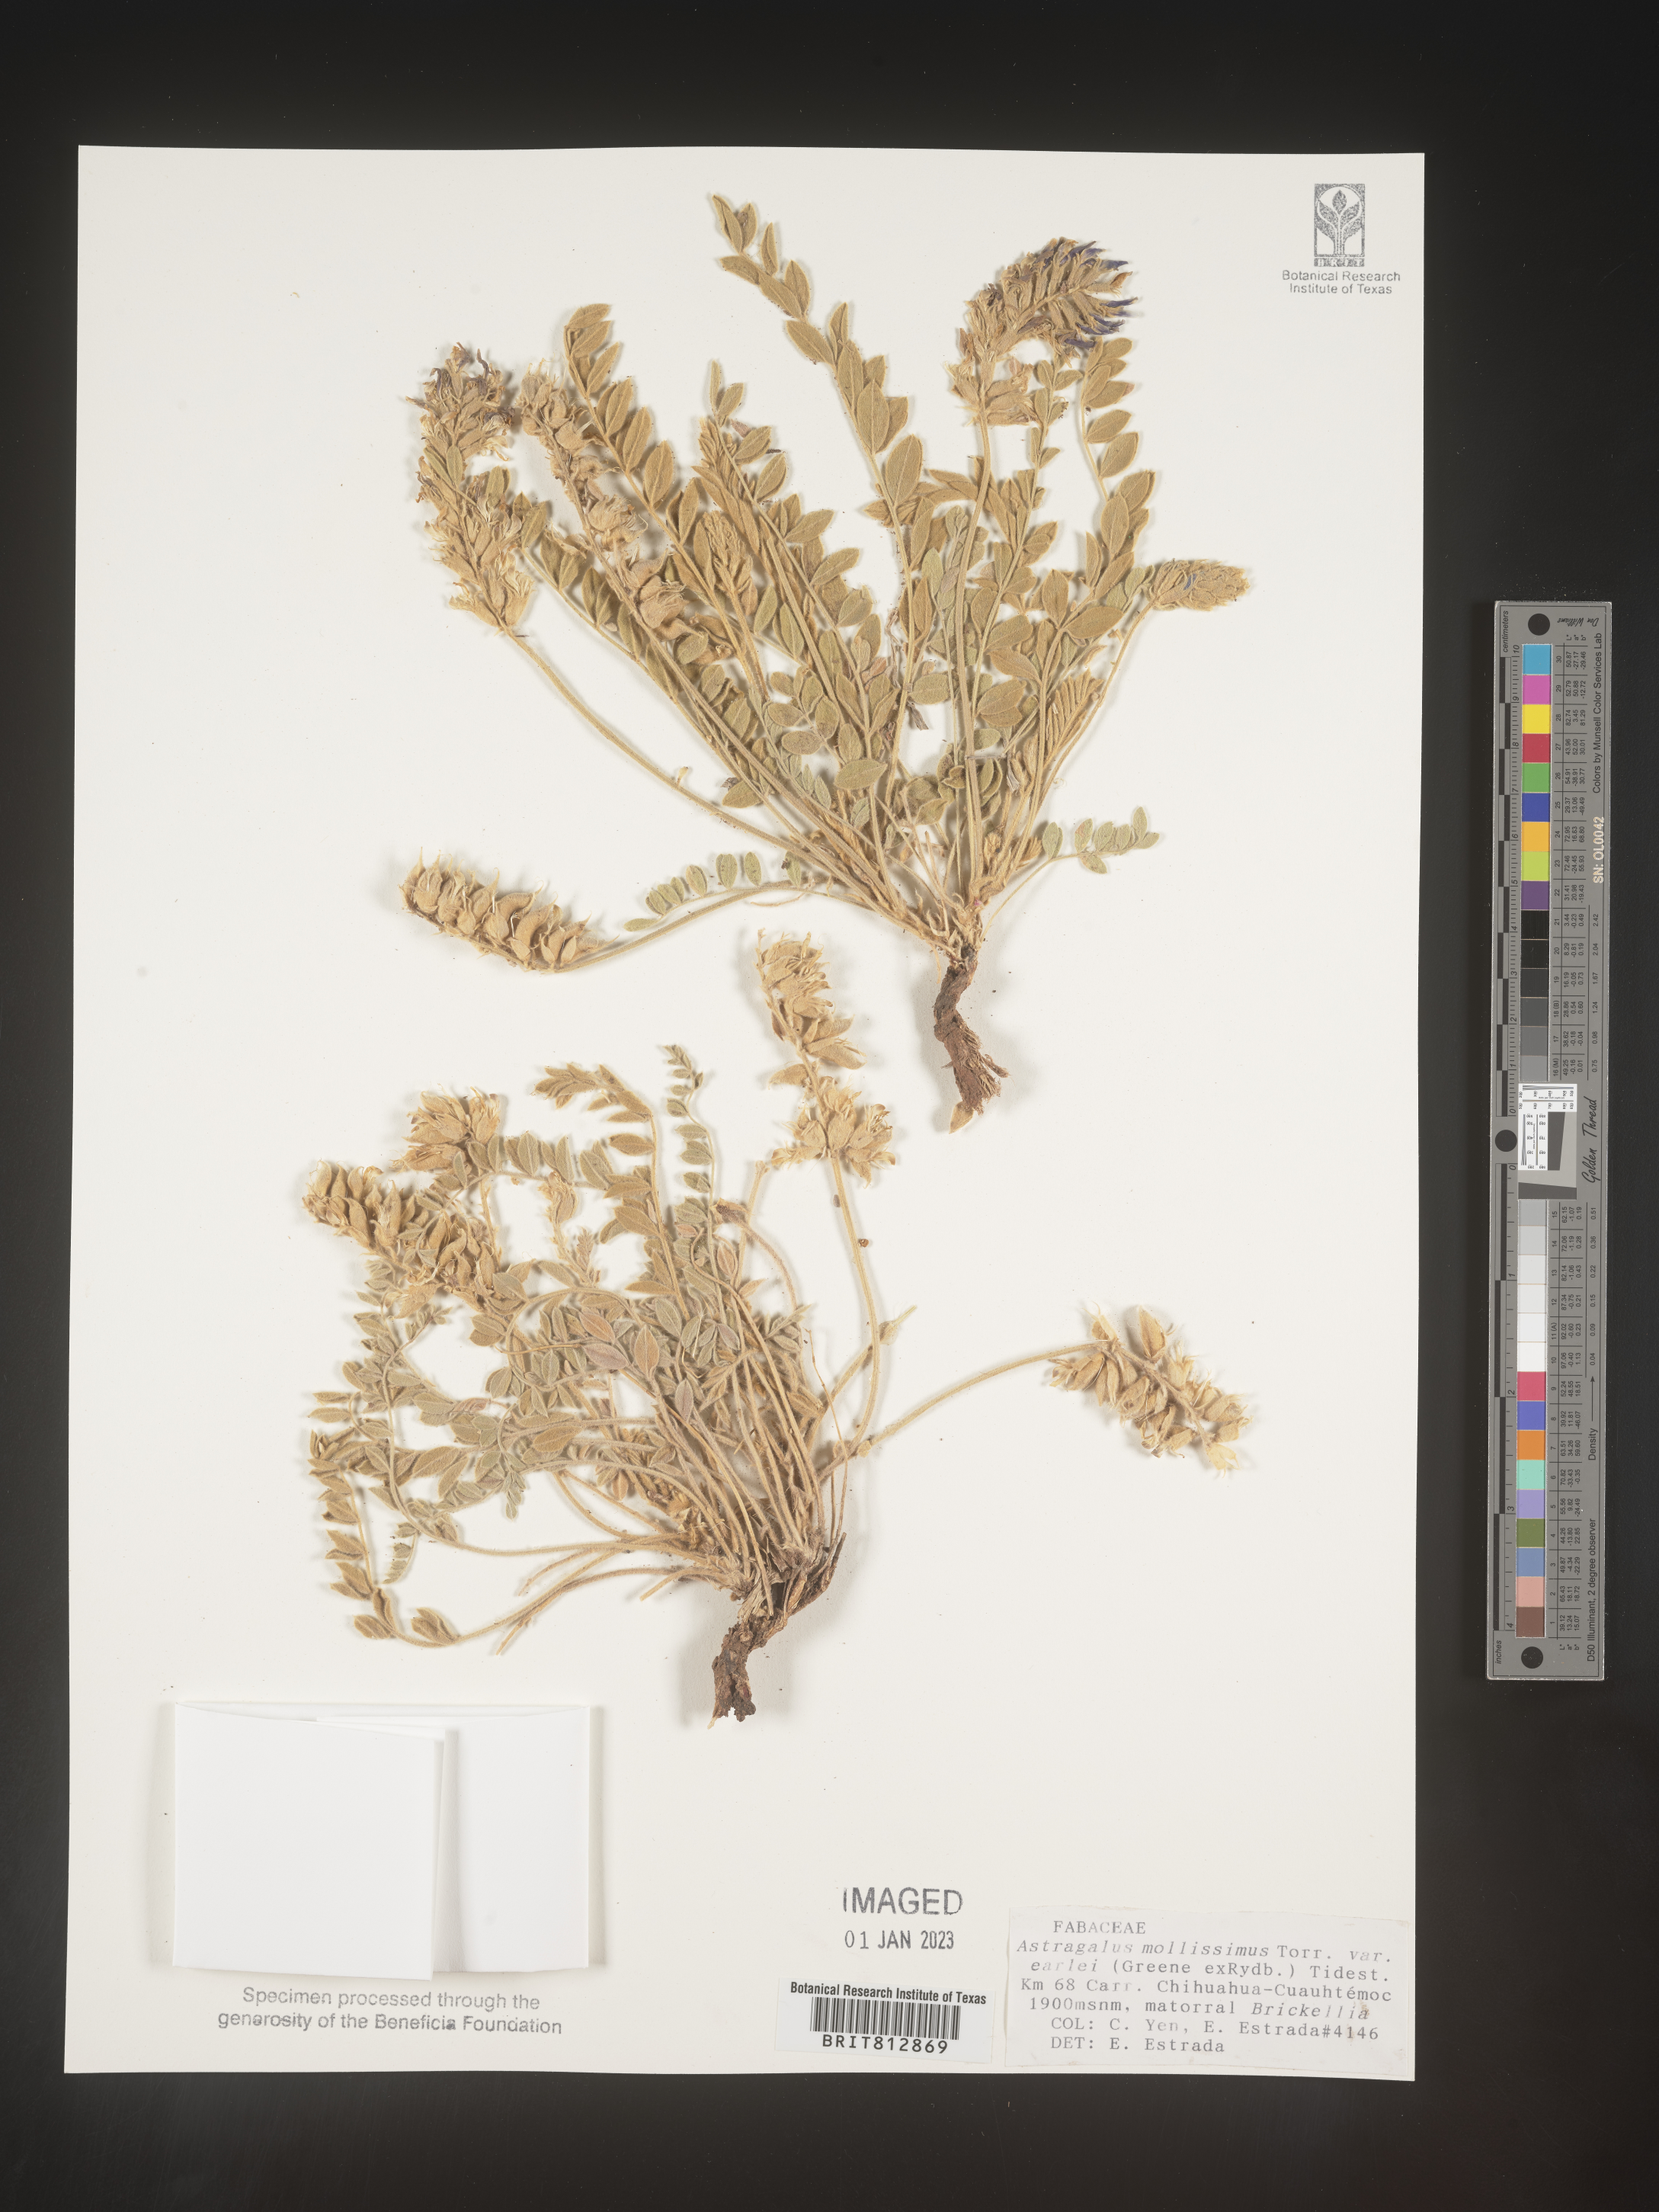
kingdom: Plantae
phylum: Tracheophyta
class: Magnoliopsida
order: Fabales
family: Fabaceae
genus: Astragalus
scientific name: Astragalus
